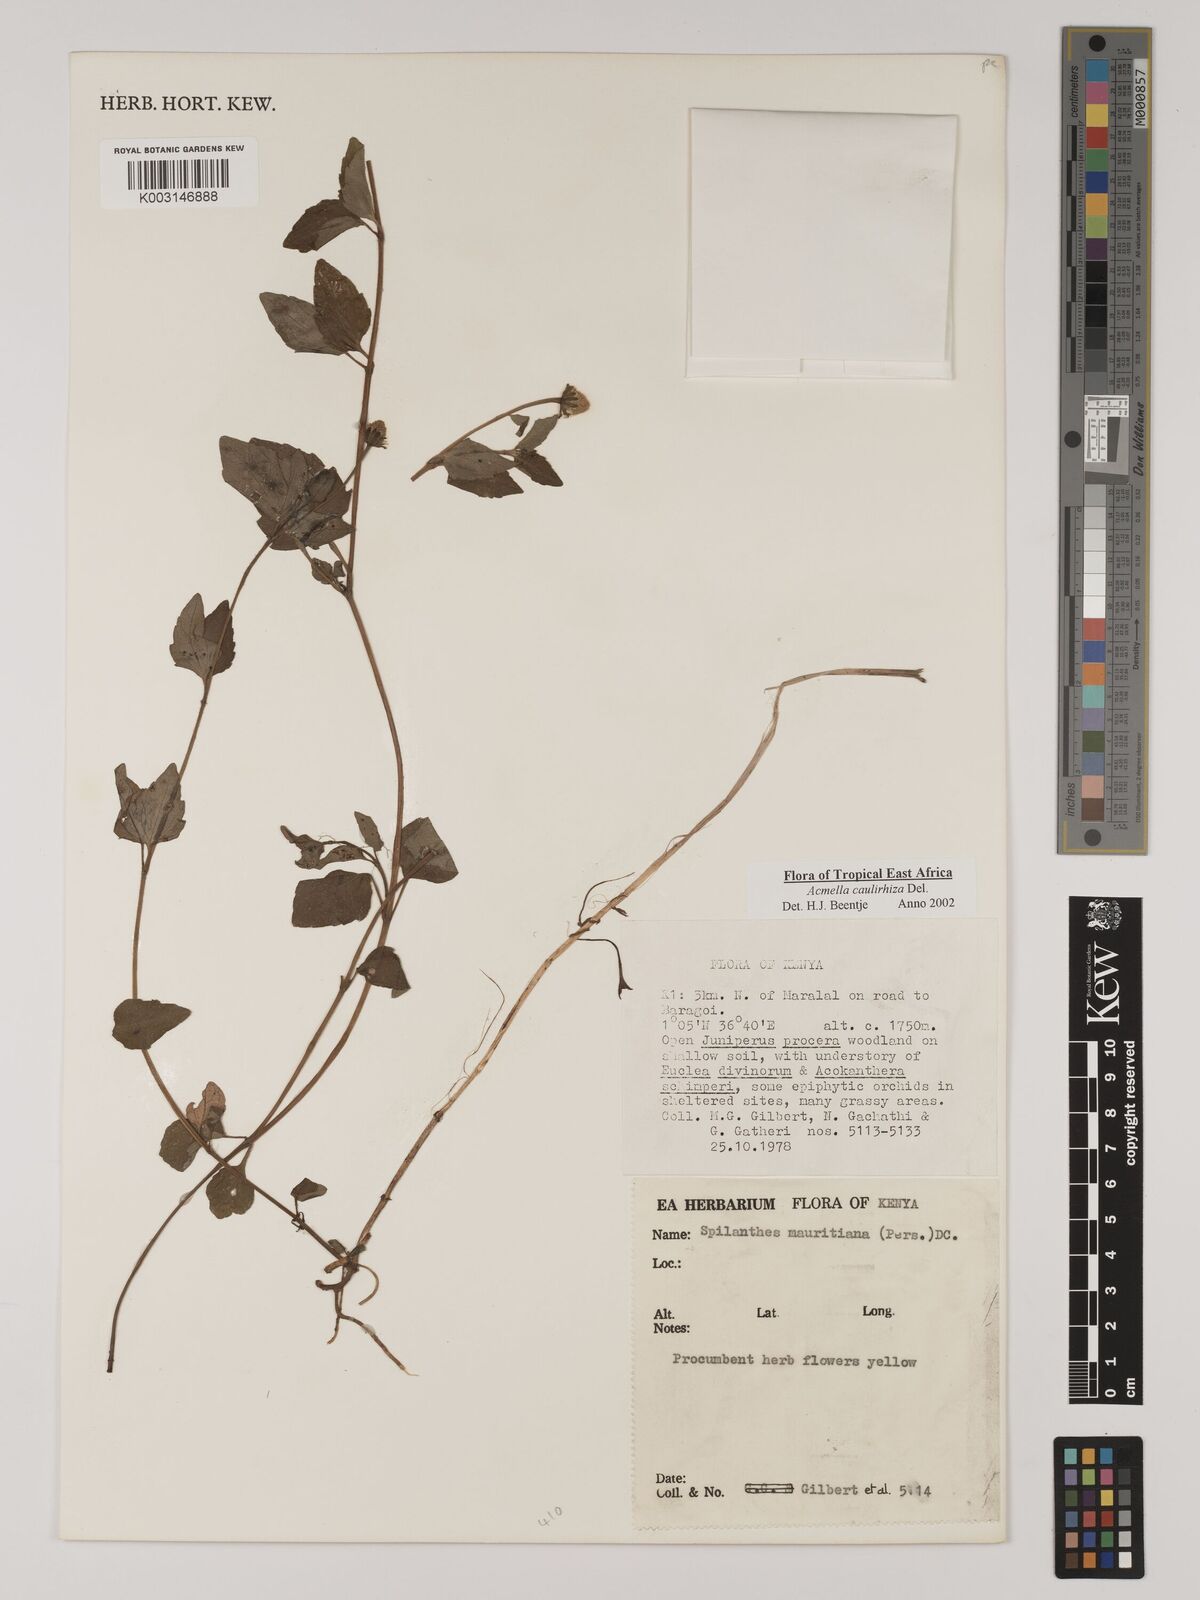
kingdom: Plantae
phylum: Tracheophyta
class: Magnoliopsida
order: Asterales
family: Asteraceae
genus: Acmella
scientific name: Acmella caulirhiza
